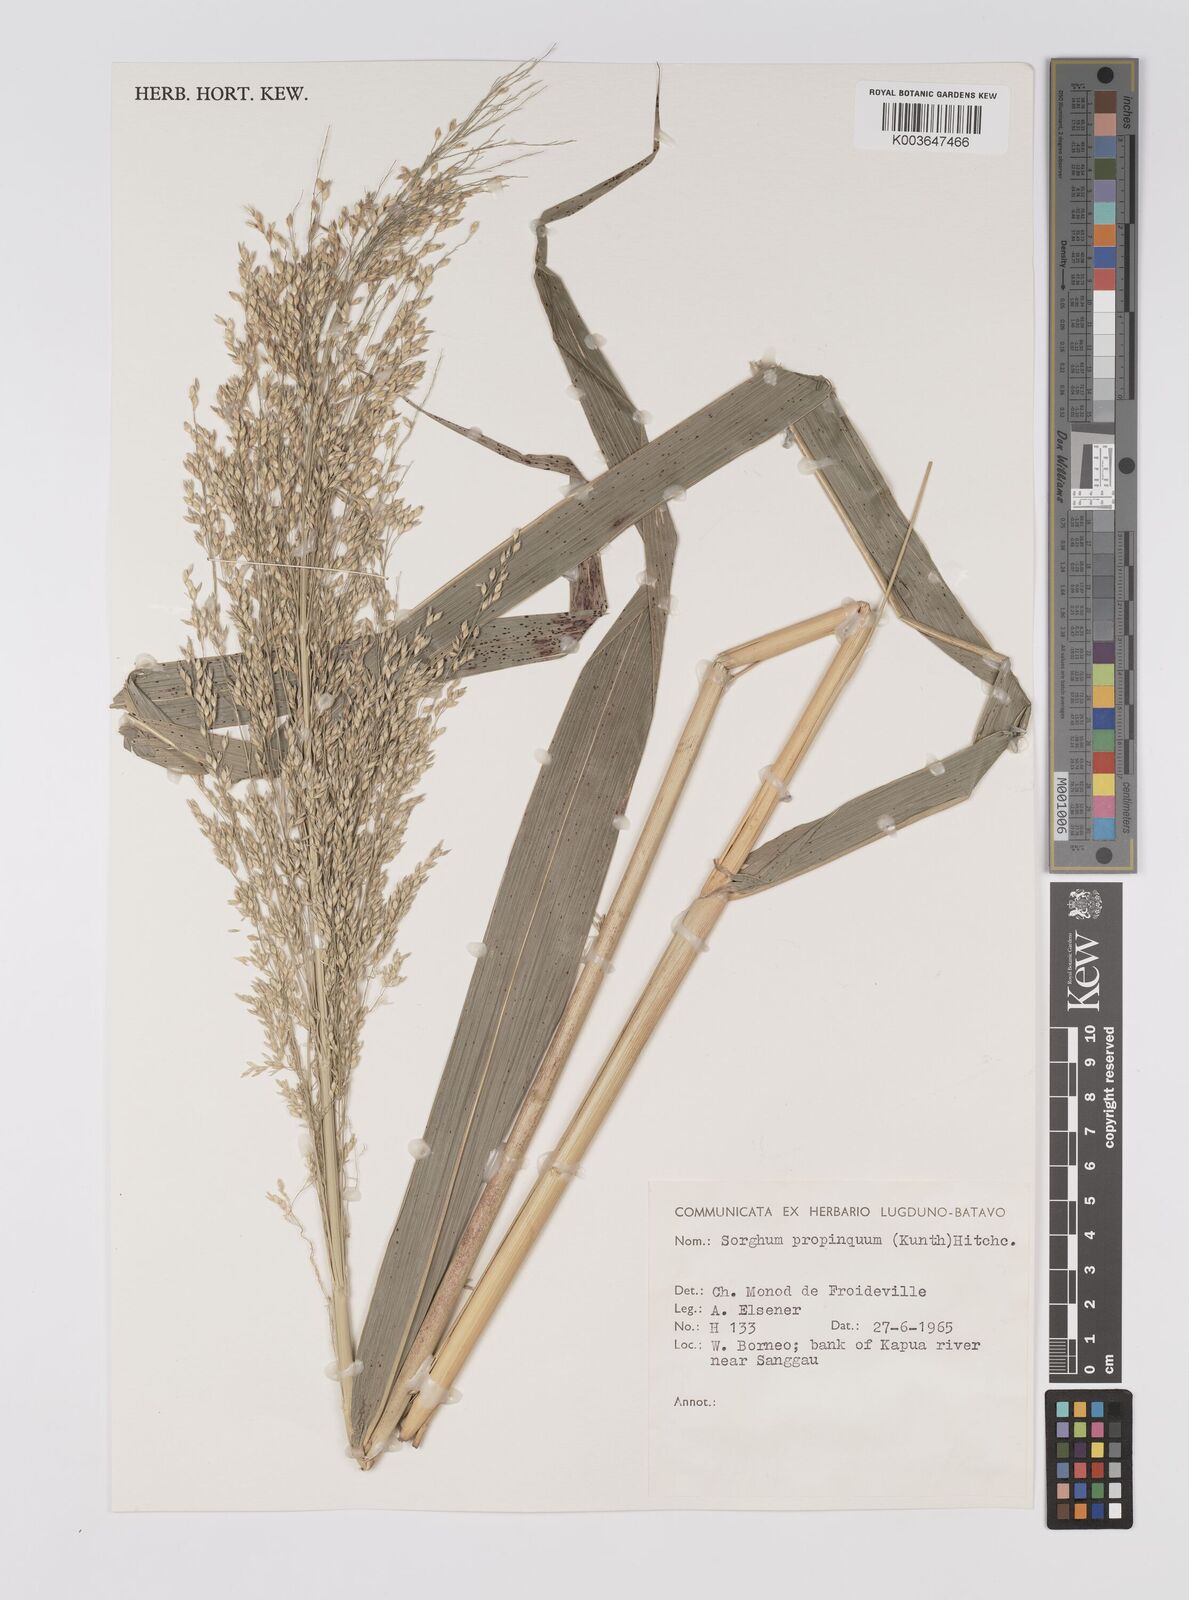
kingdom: Plantae
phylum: Tracheophyta
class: Liliopsida
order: Poales
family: Poaceae
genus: Sorghum
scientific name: Sorghum propinquum
